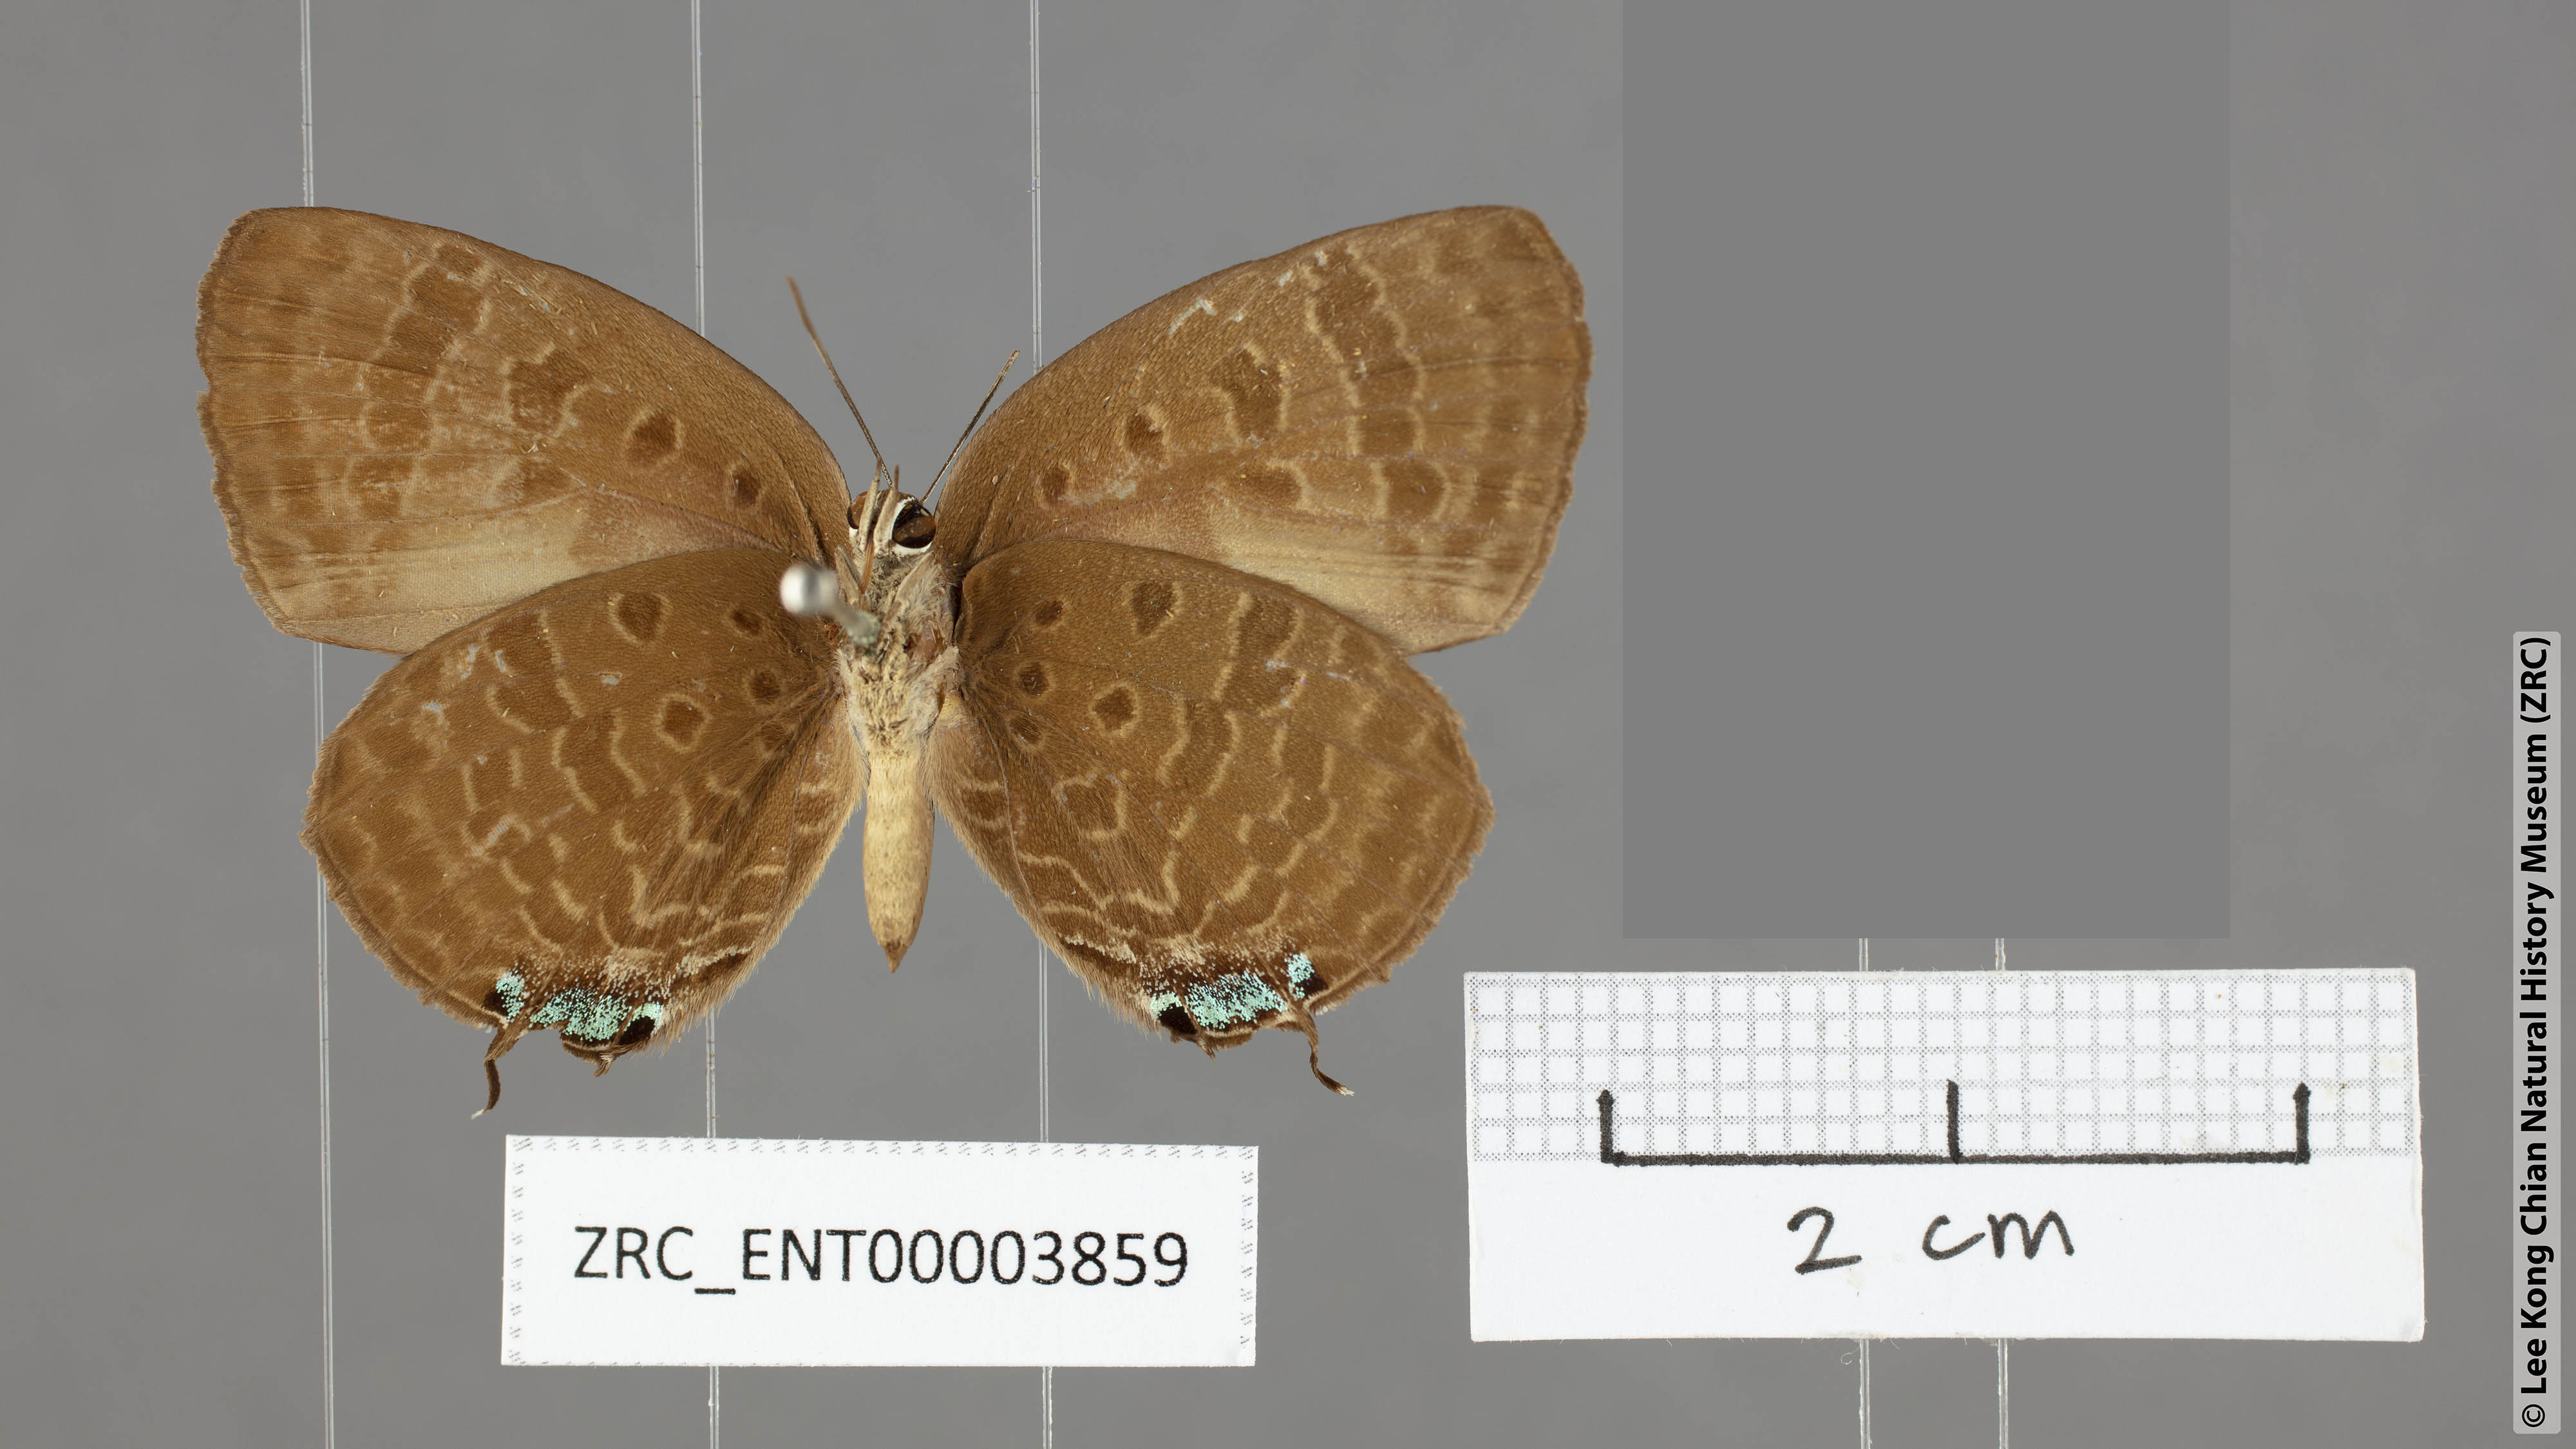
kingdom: Animalia
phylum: Arthropoda
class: Insecta
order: Lepidoptera
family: Lycaenidae
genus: Arhopala
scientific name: Arhopala aroa
